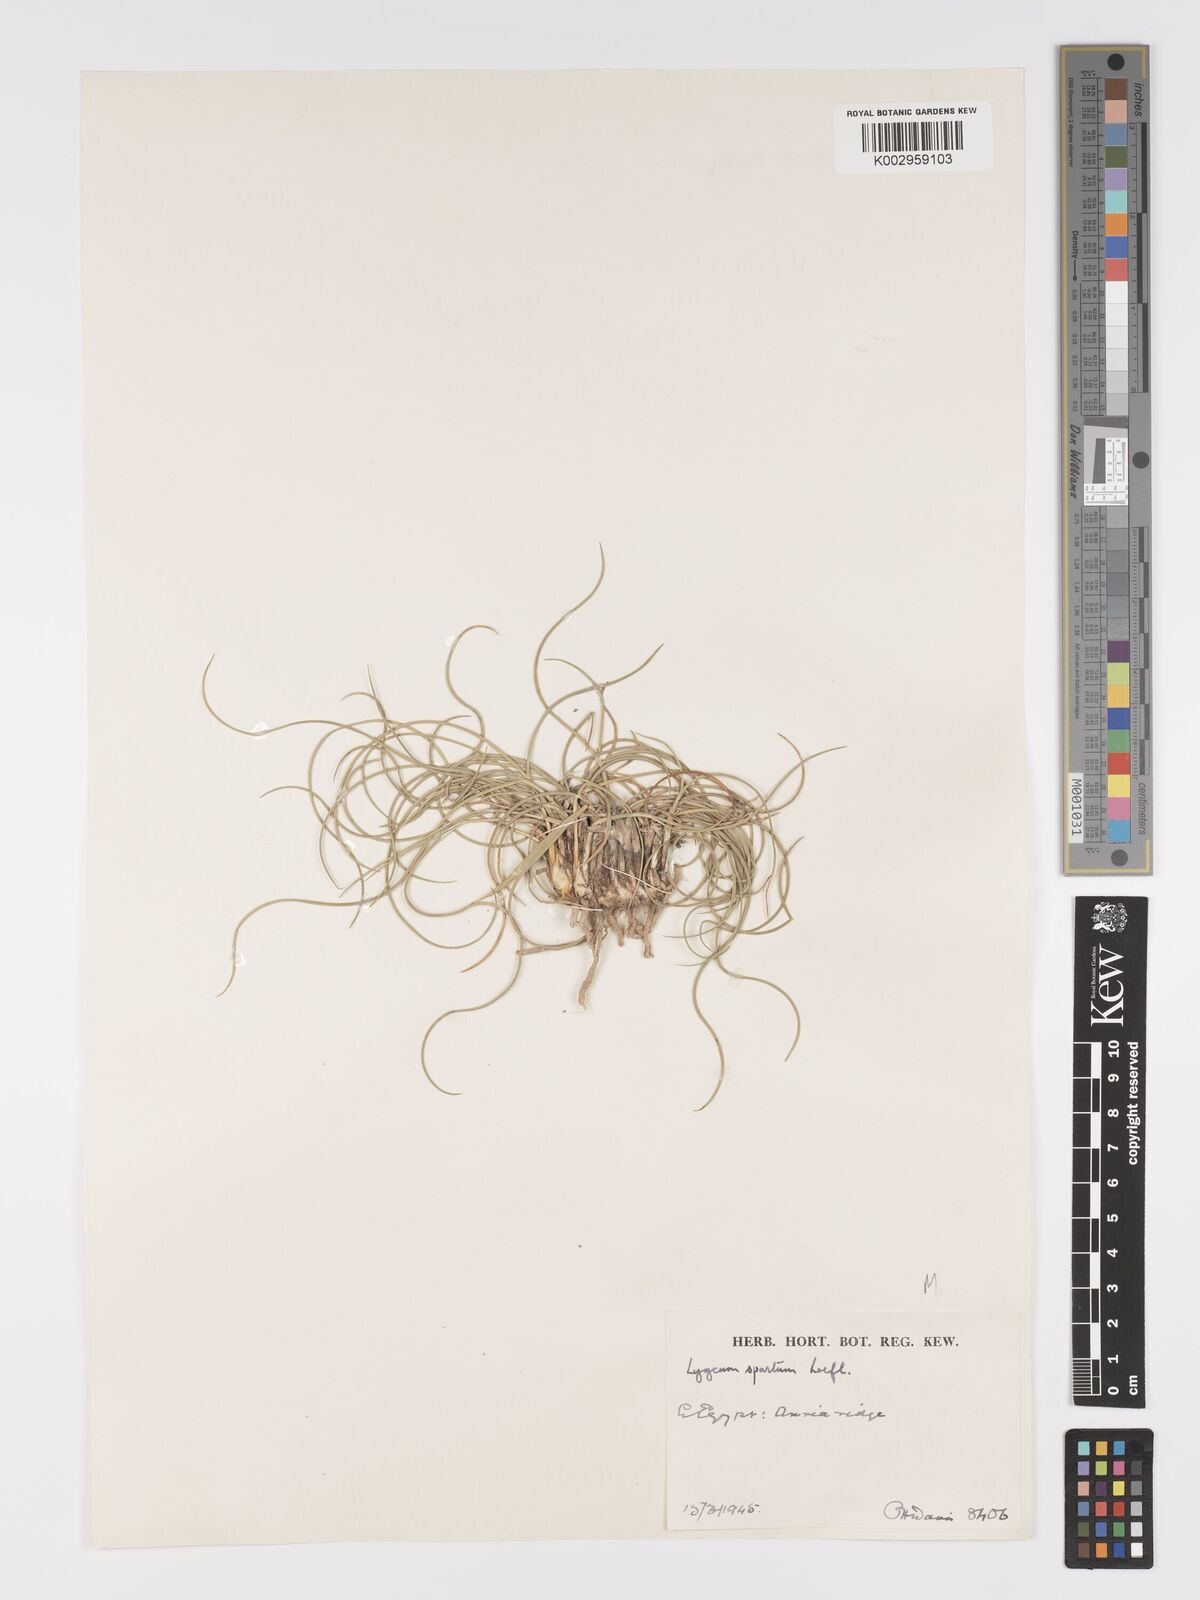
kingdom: Plantae
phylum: Tracheophyta
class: Liliopsida
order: Poales
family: Poaceae
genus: Lygeum
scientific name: Lygeum spartum
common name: Albardine
